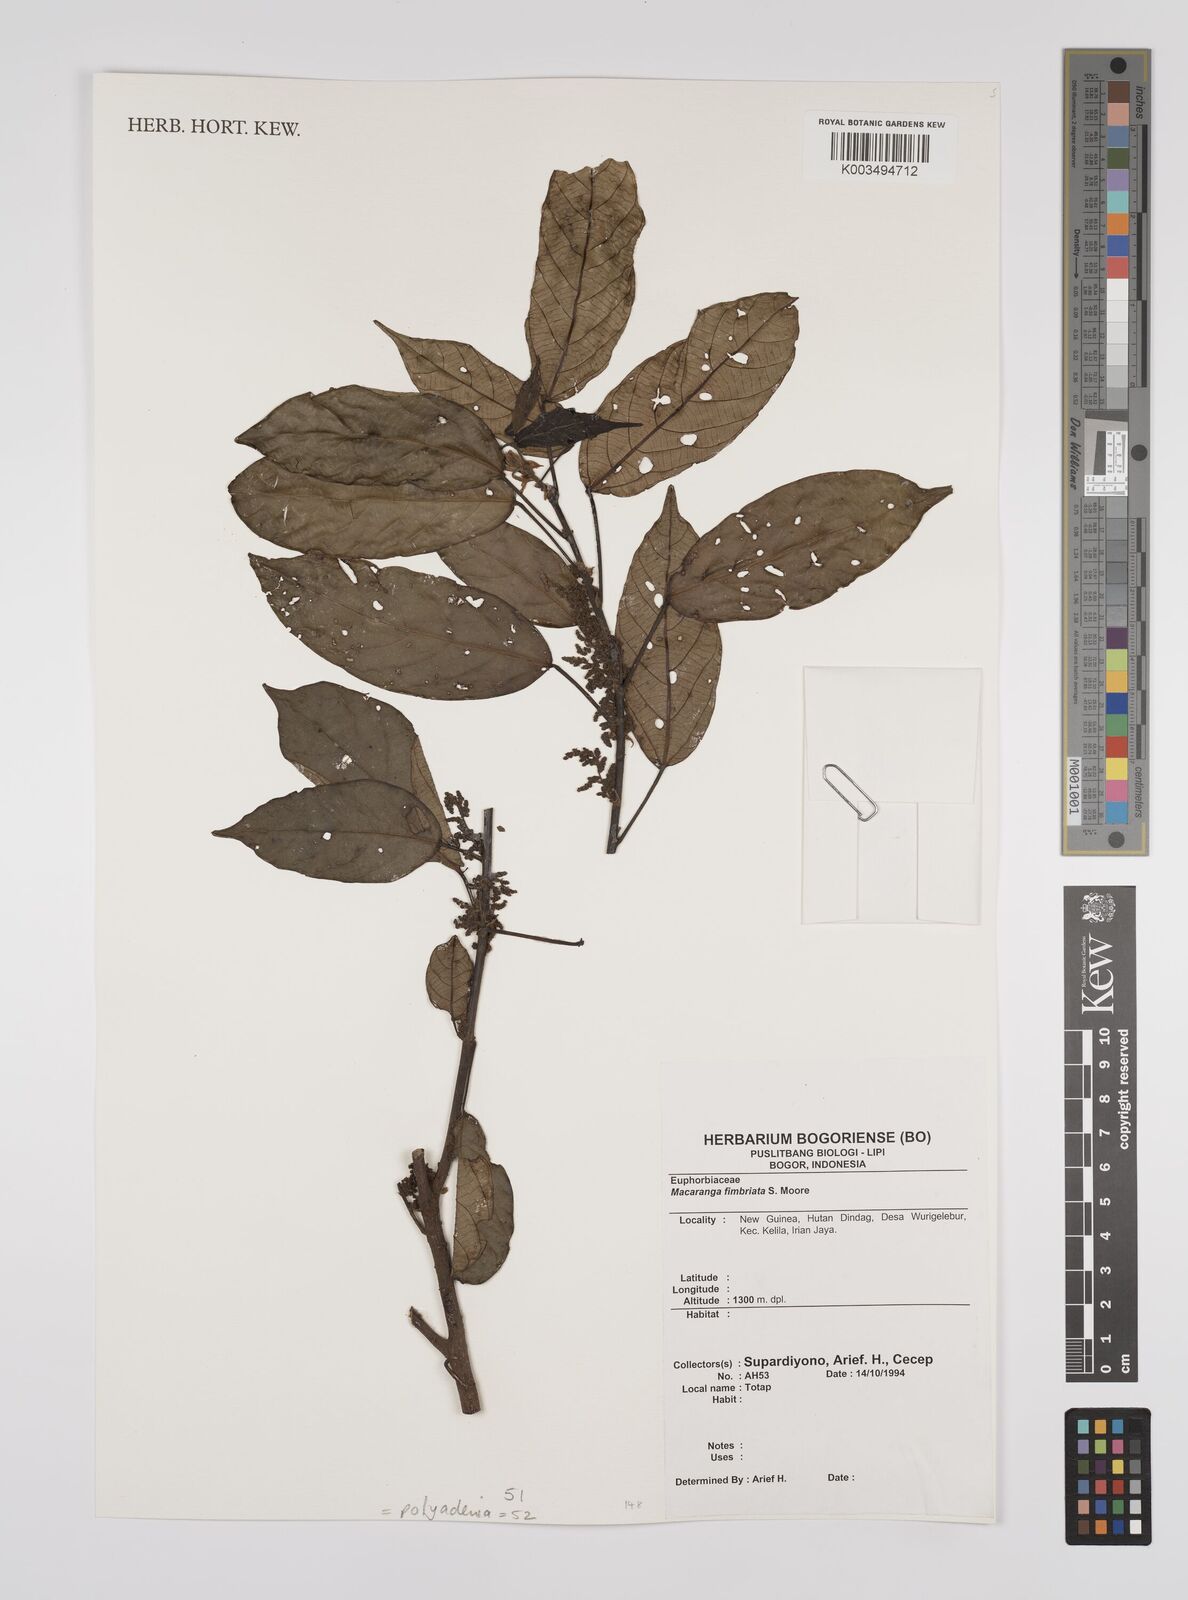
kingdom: Plantae
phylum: Tracheophyta
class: Magnoliopsida
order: Malpighiales
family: Euphorbiaceae
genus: Macaranga
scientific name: Macaranga polyadenia
